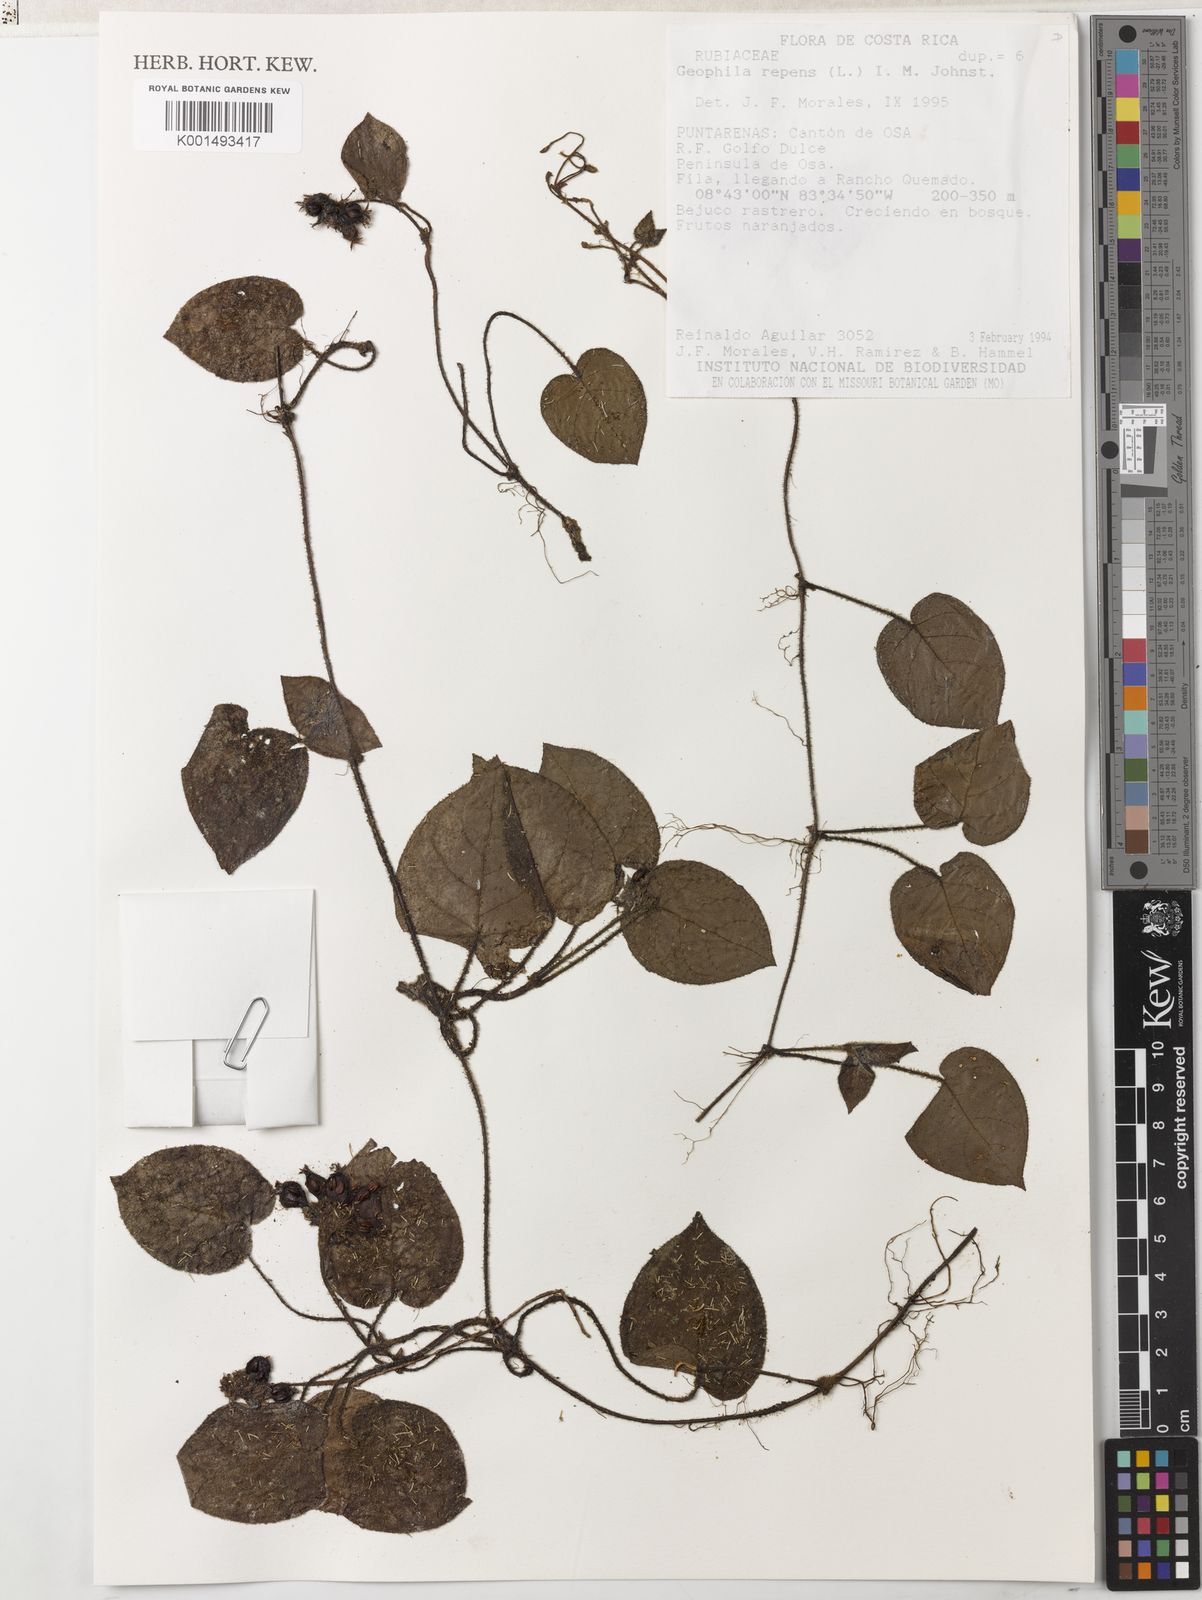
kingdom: Plantae
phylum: Tracheophyta
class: Magnoliopsida
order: Gentianales
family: Rubiaceae
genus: Geophila
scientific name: Geophila repens
